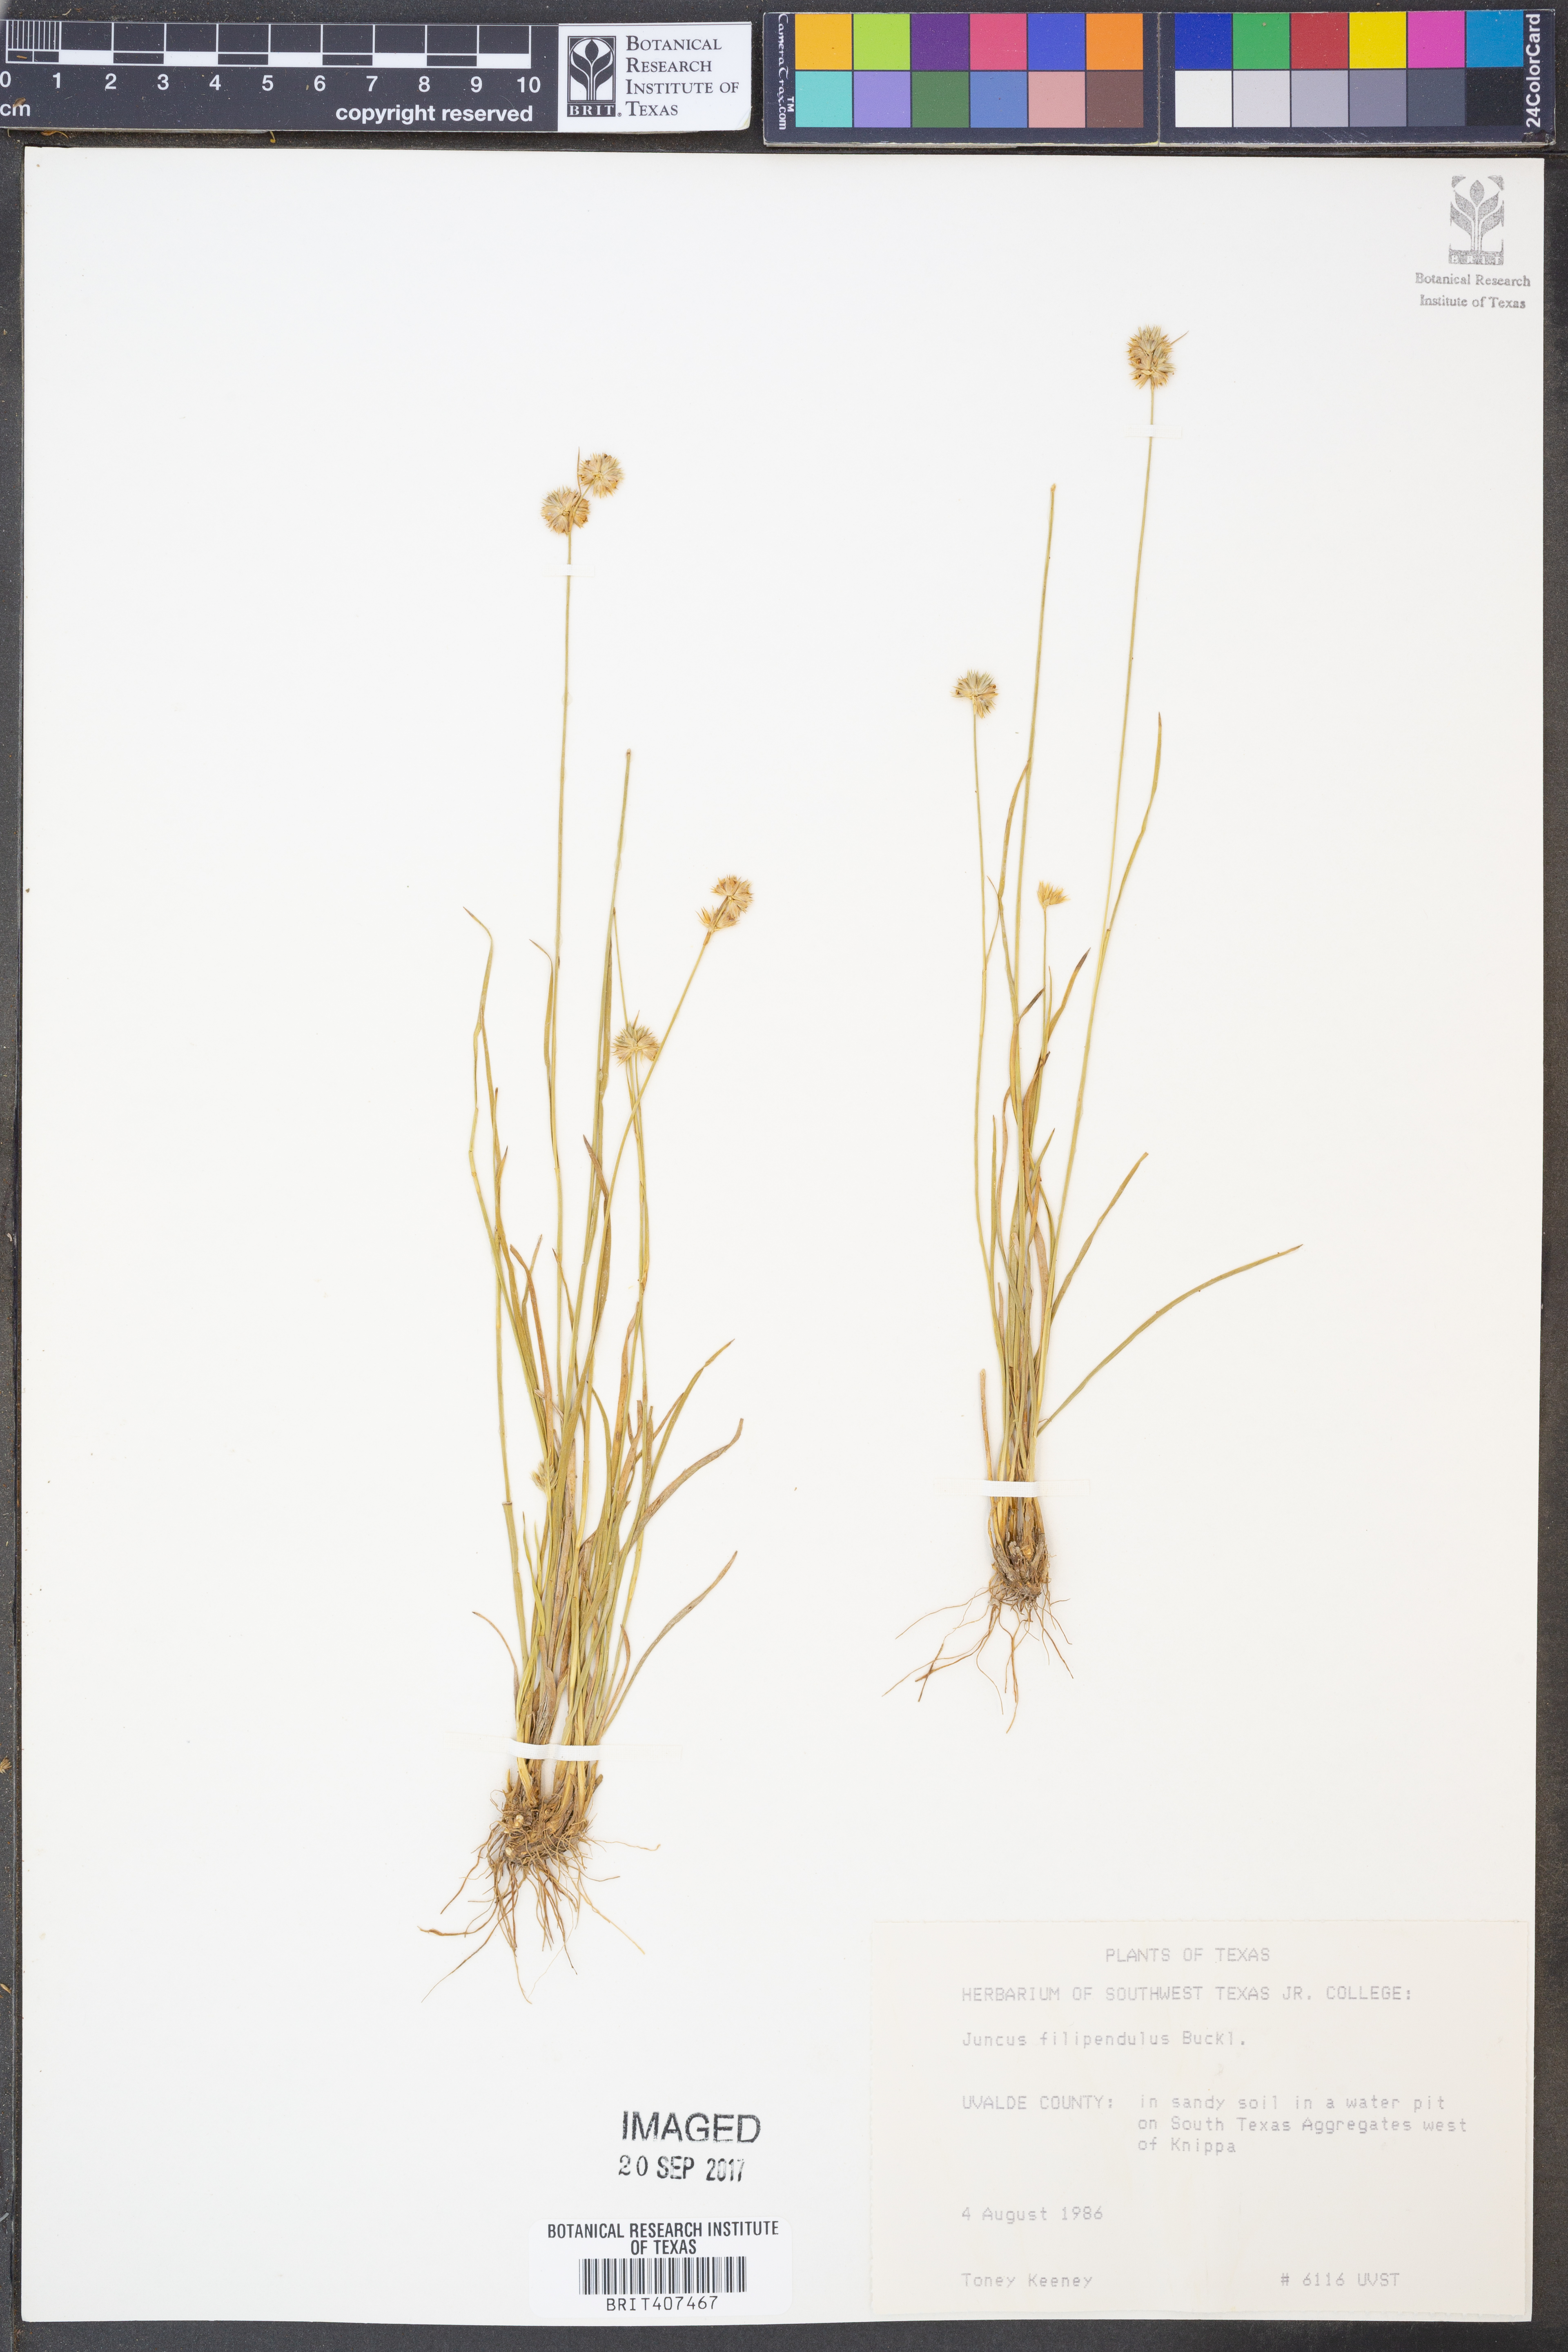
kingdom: Plantae
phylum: Tracheophyta
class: Liliopsida
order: Poales
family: Juncaceae
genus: Juncus
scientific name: Juncus filipendulus
